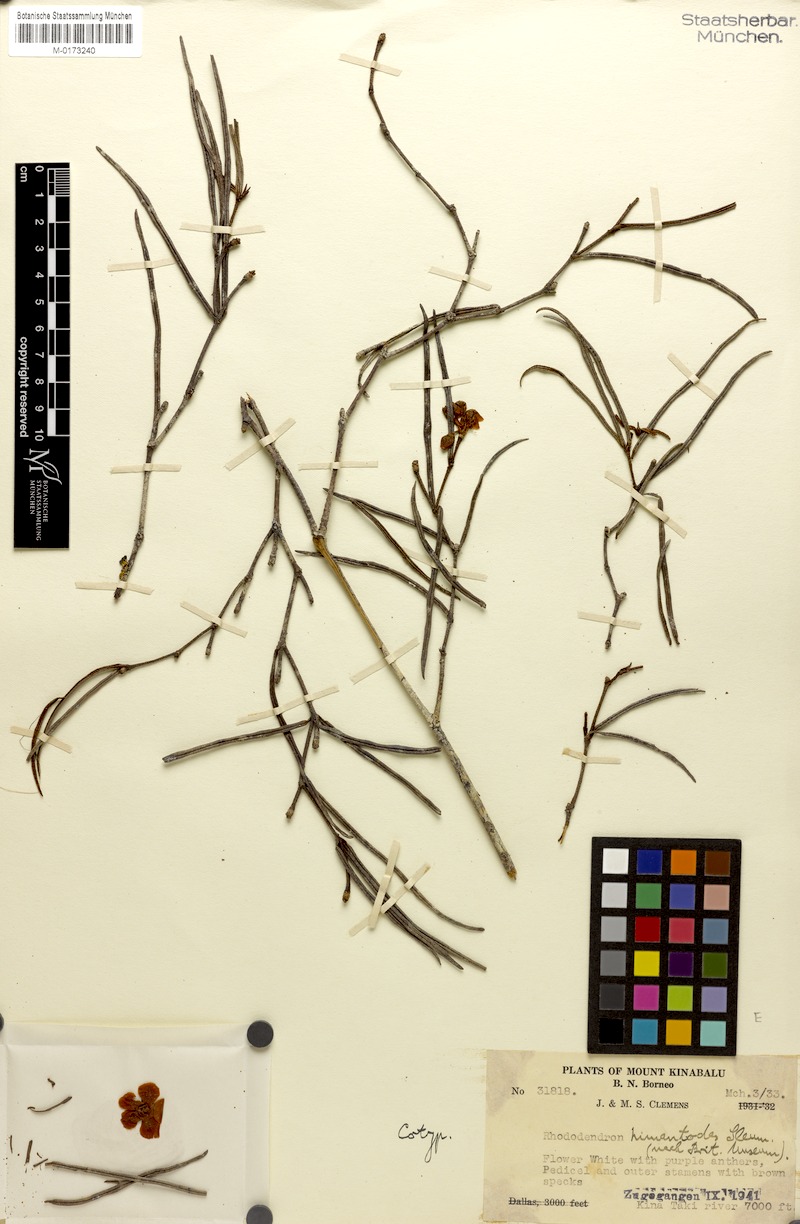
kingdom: Plantae
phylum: Tracheophyta
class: Magnoliopsida
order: Ericales
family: Ericaceae
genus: Rhododendron
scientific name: Rhododendron himantodes
